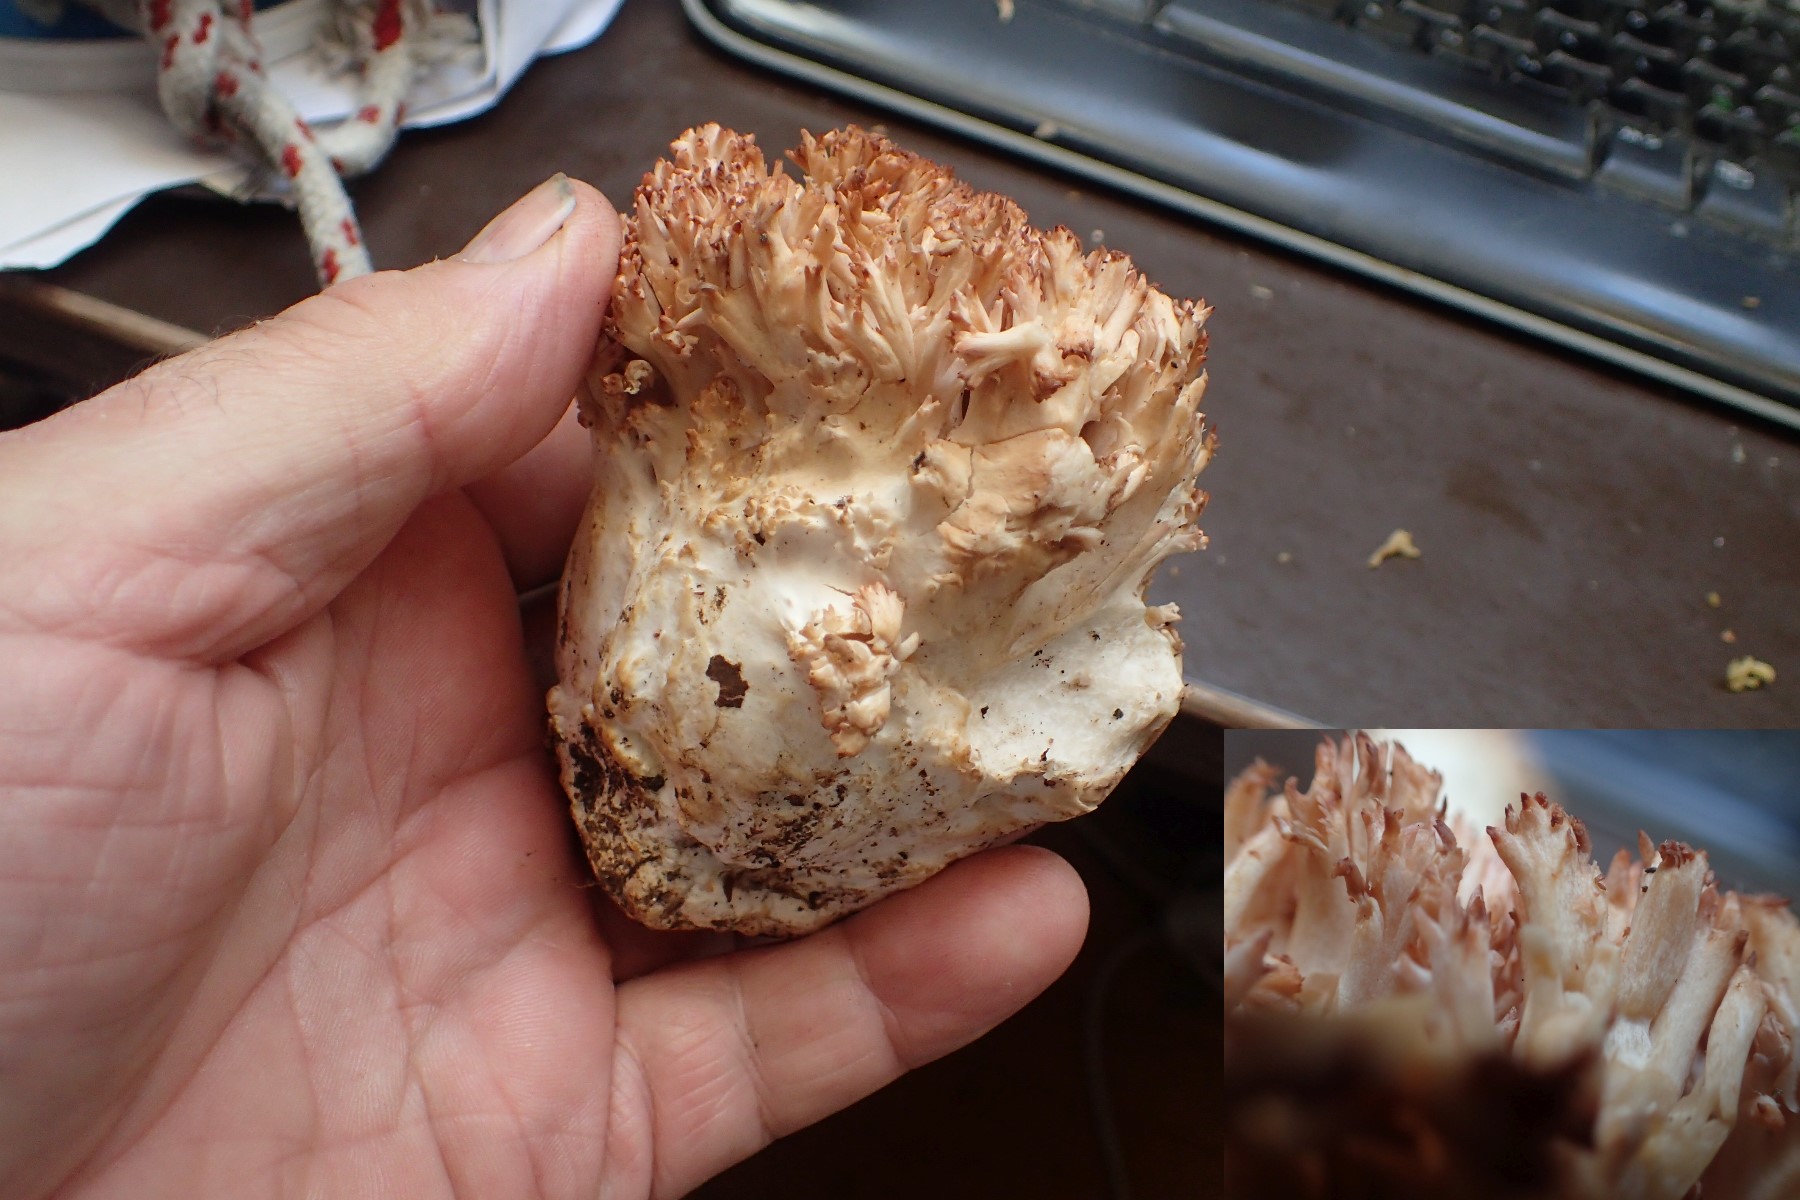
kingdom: Fungi
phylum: Basidiomycota
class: Agaricomycetes
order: Gomphales
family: Gomphaceae
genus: Ramaria
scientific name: Ramaria botrytis
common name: drue-koralsvamp
